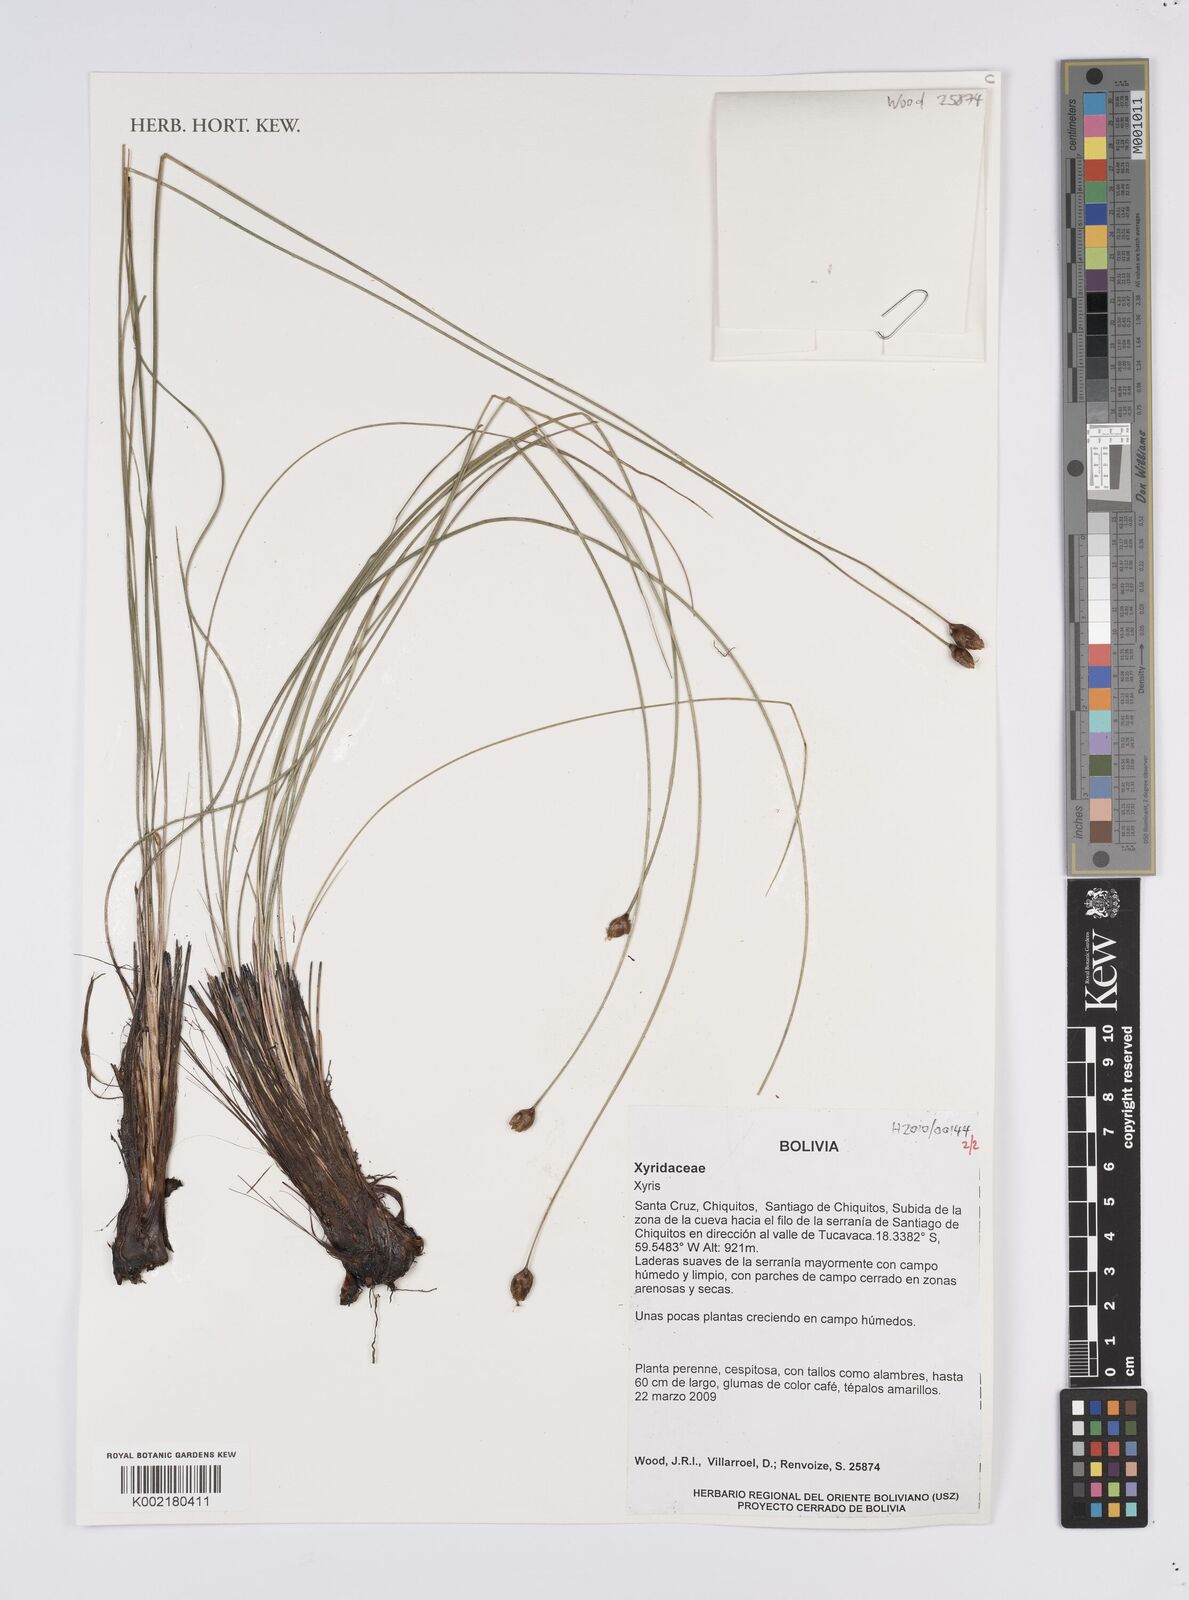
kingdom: Plantae
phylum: Tracheophyta
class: Liliopsida
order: Poales
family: Xyridaceae
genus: Xyris
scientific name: Xyris
